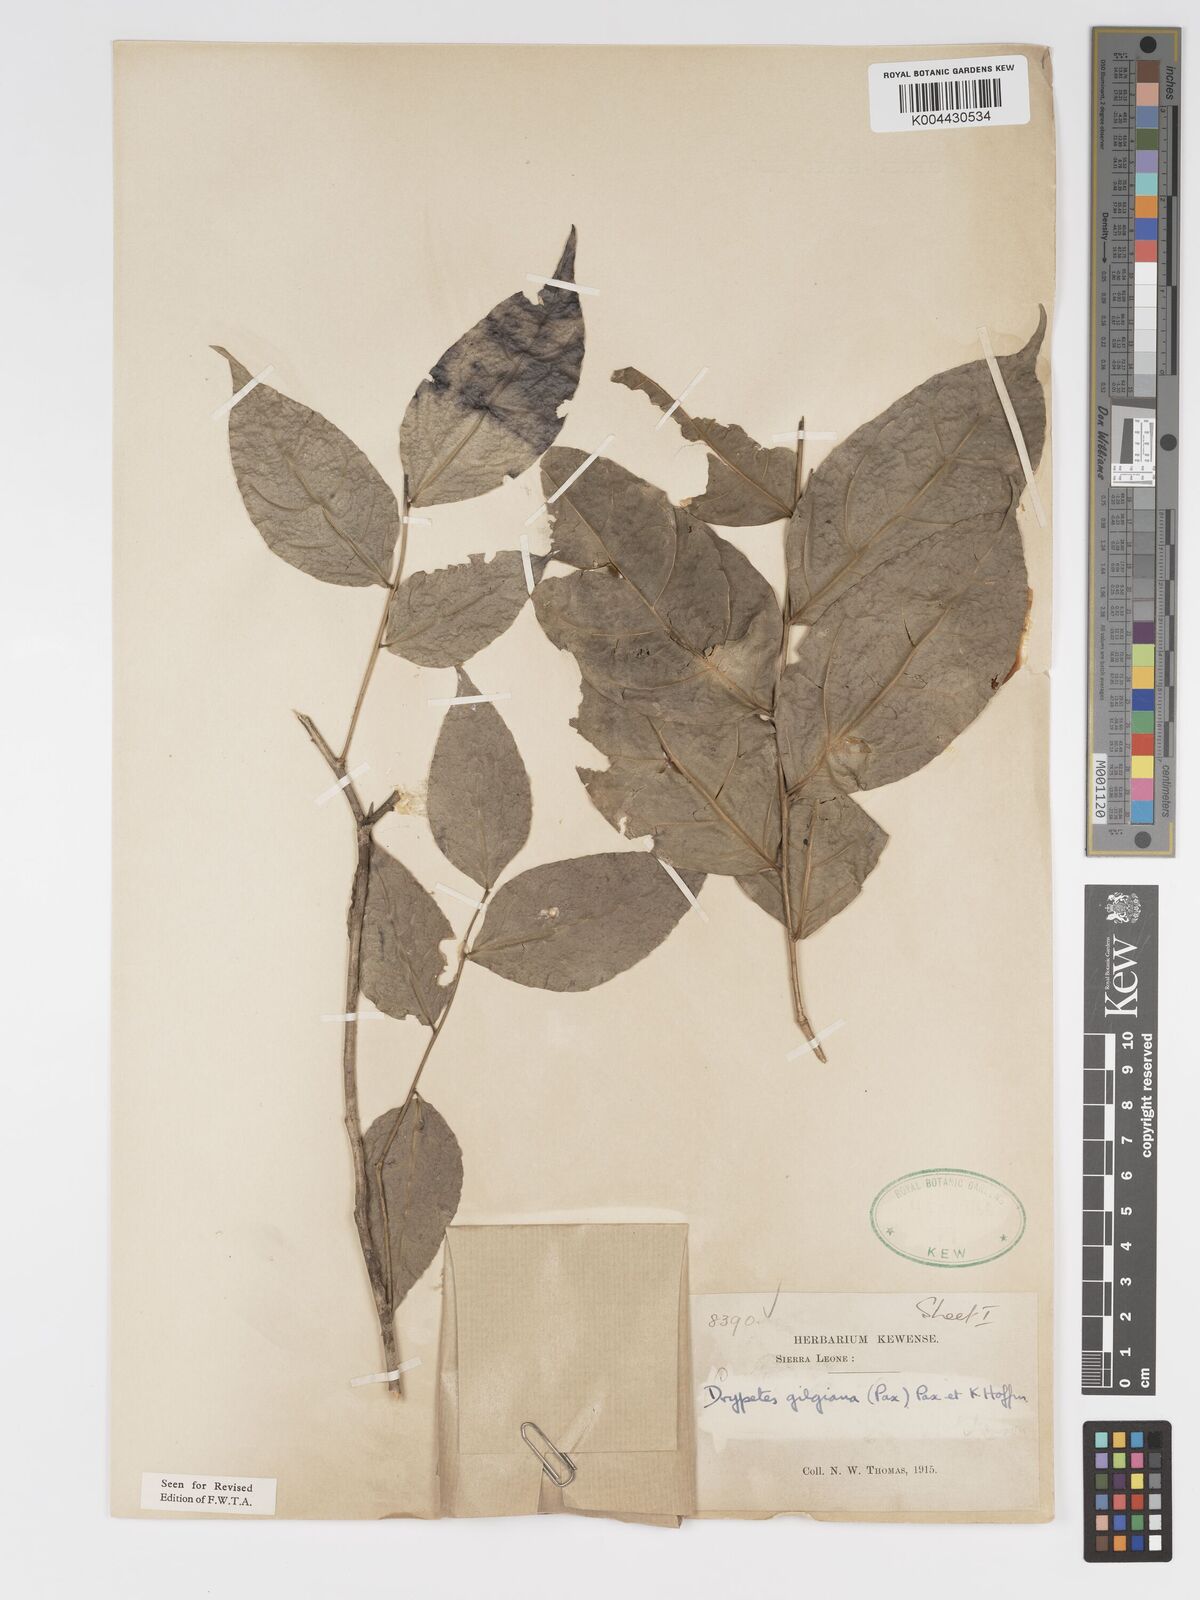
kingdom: Plantae
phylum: Tracheophyta
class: Magnoliopsida
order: Malpighiales
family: Putranjivaceae
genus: Drypetes
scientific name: Drypetes gilgiana
